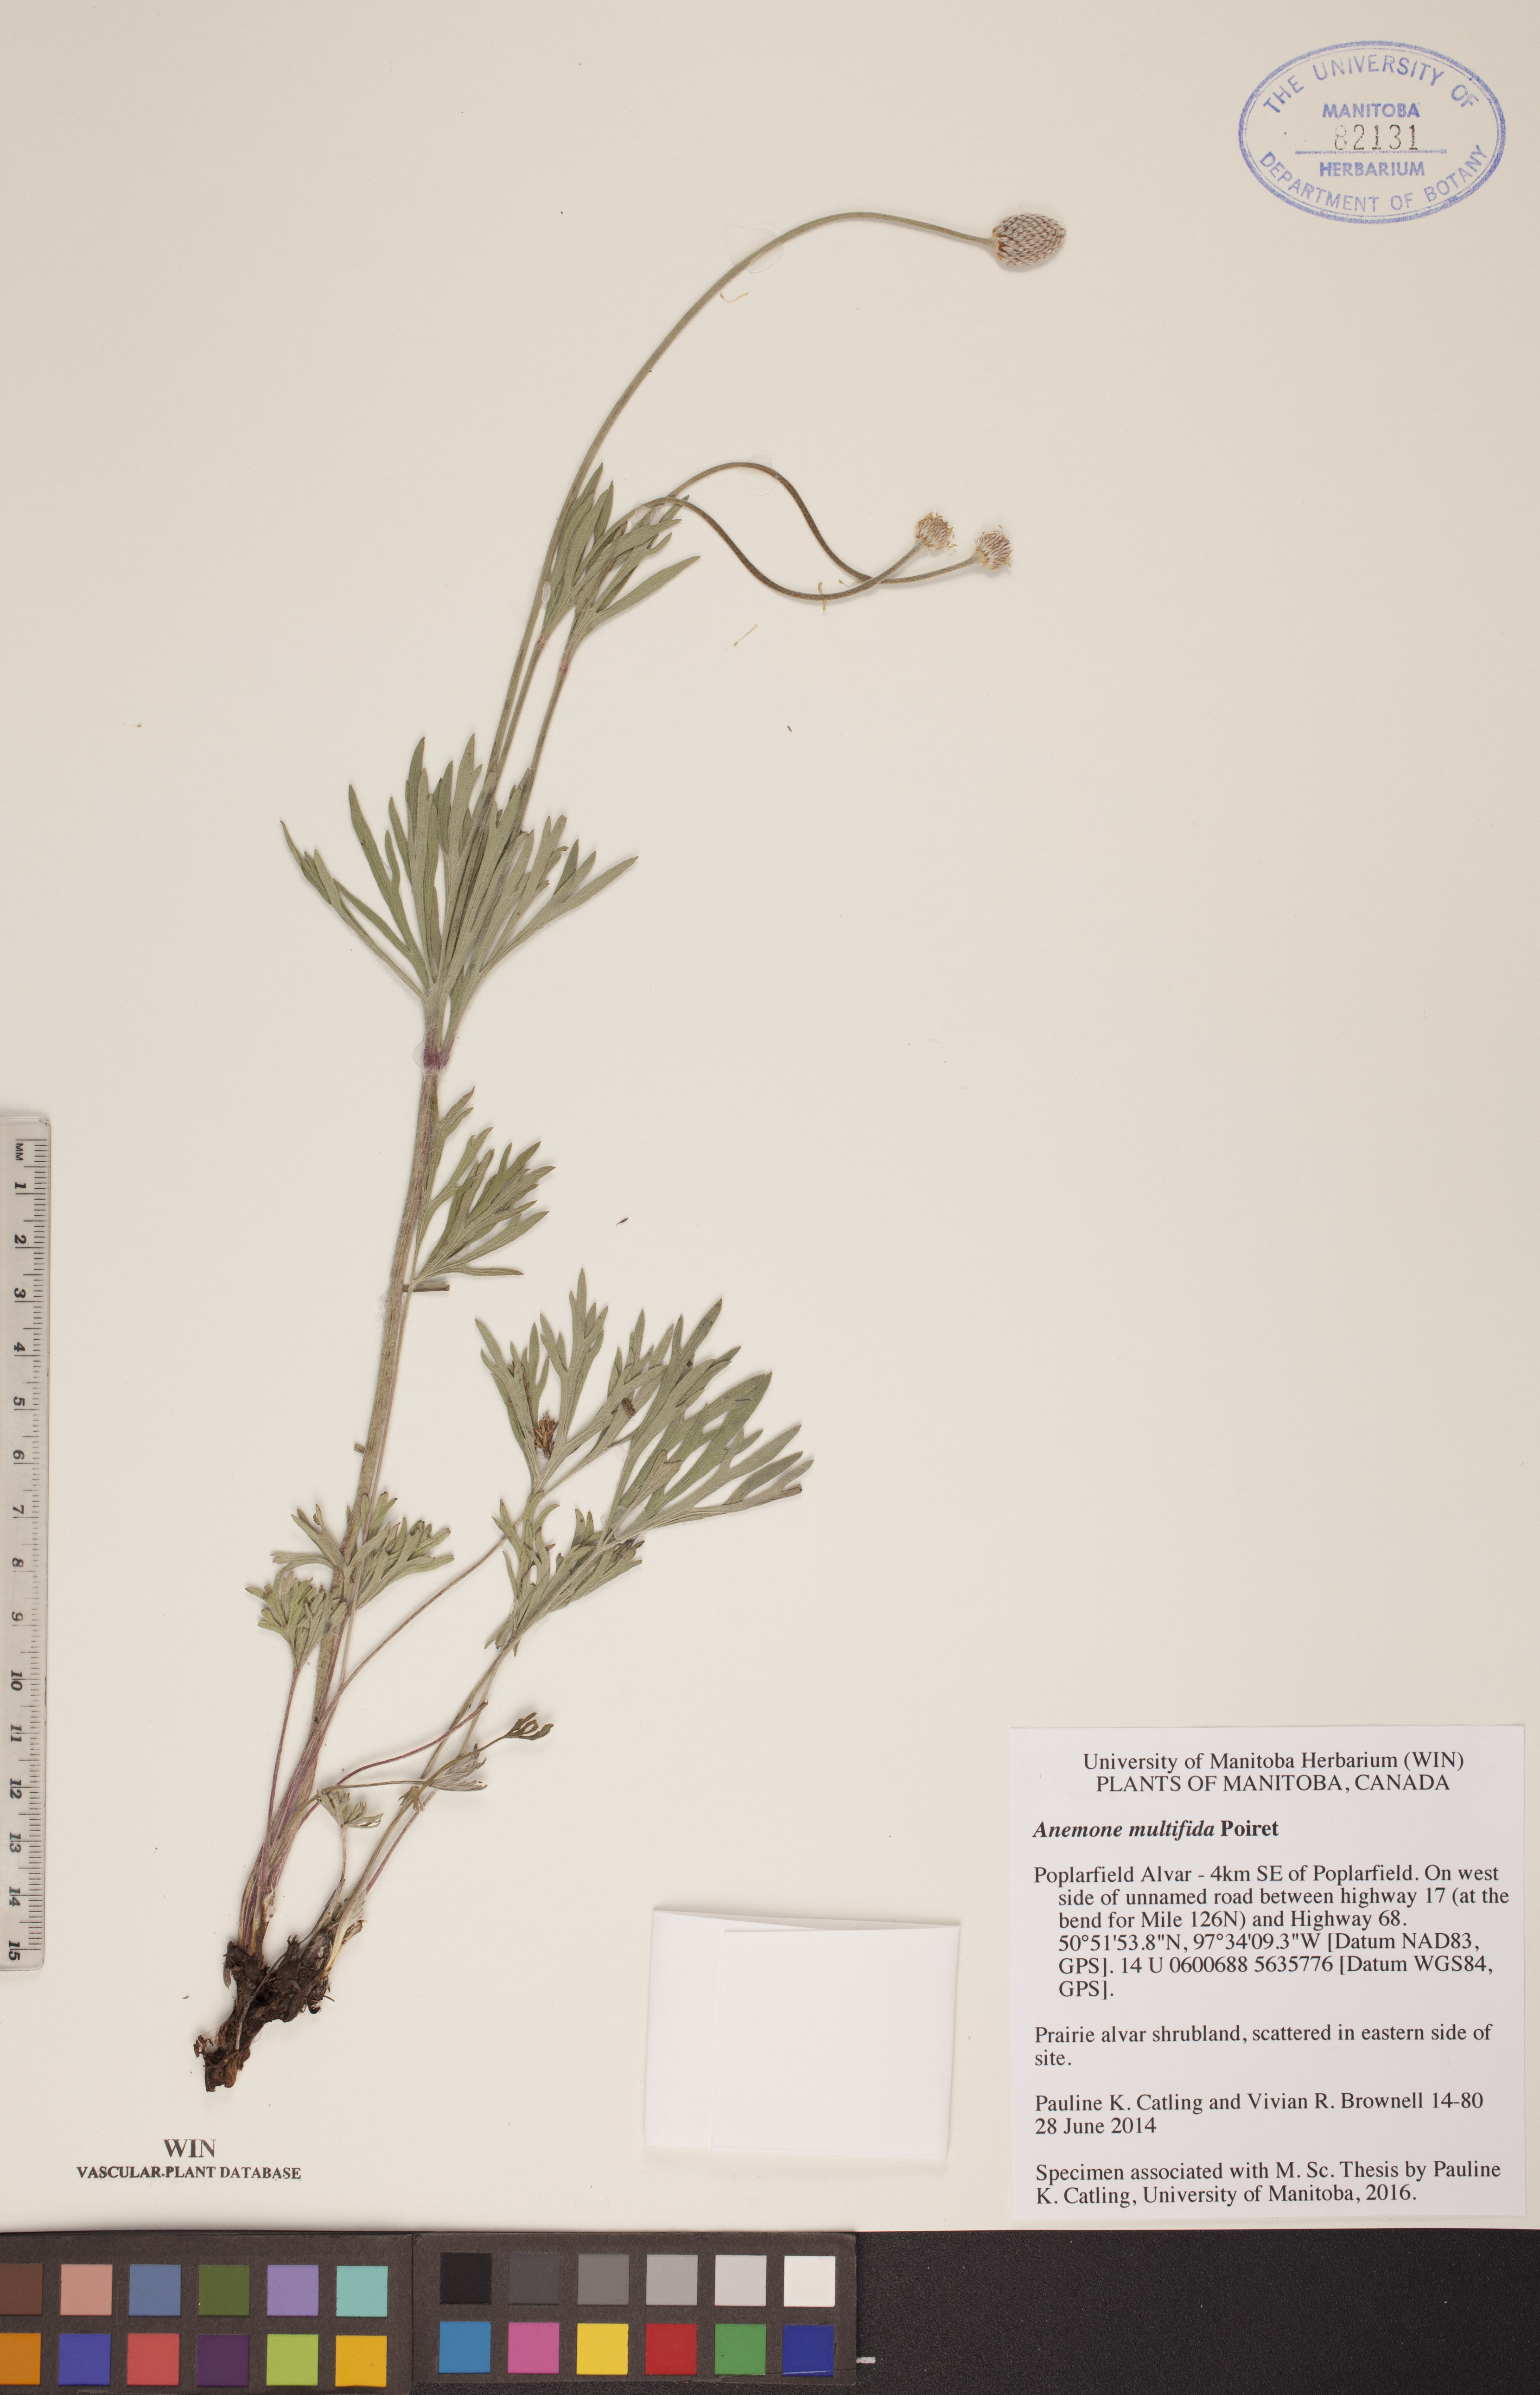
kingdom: Plantae
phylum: Tracheophyta
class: Magnoliopsida
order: Ranunculales
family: Ranunculaceae
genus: Anemone
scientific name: Anemone multifida
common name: Bird's-foot anemone
